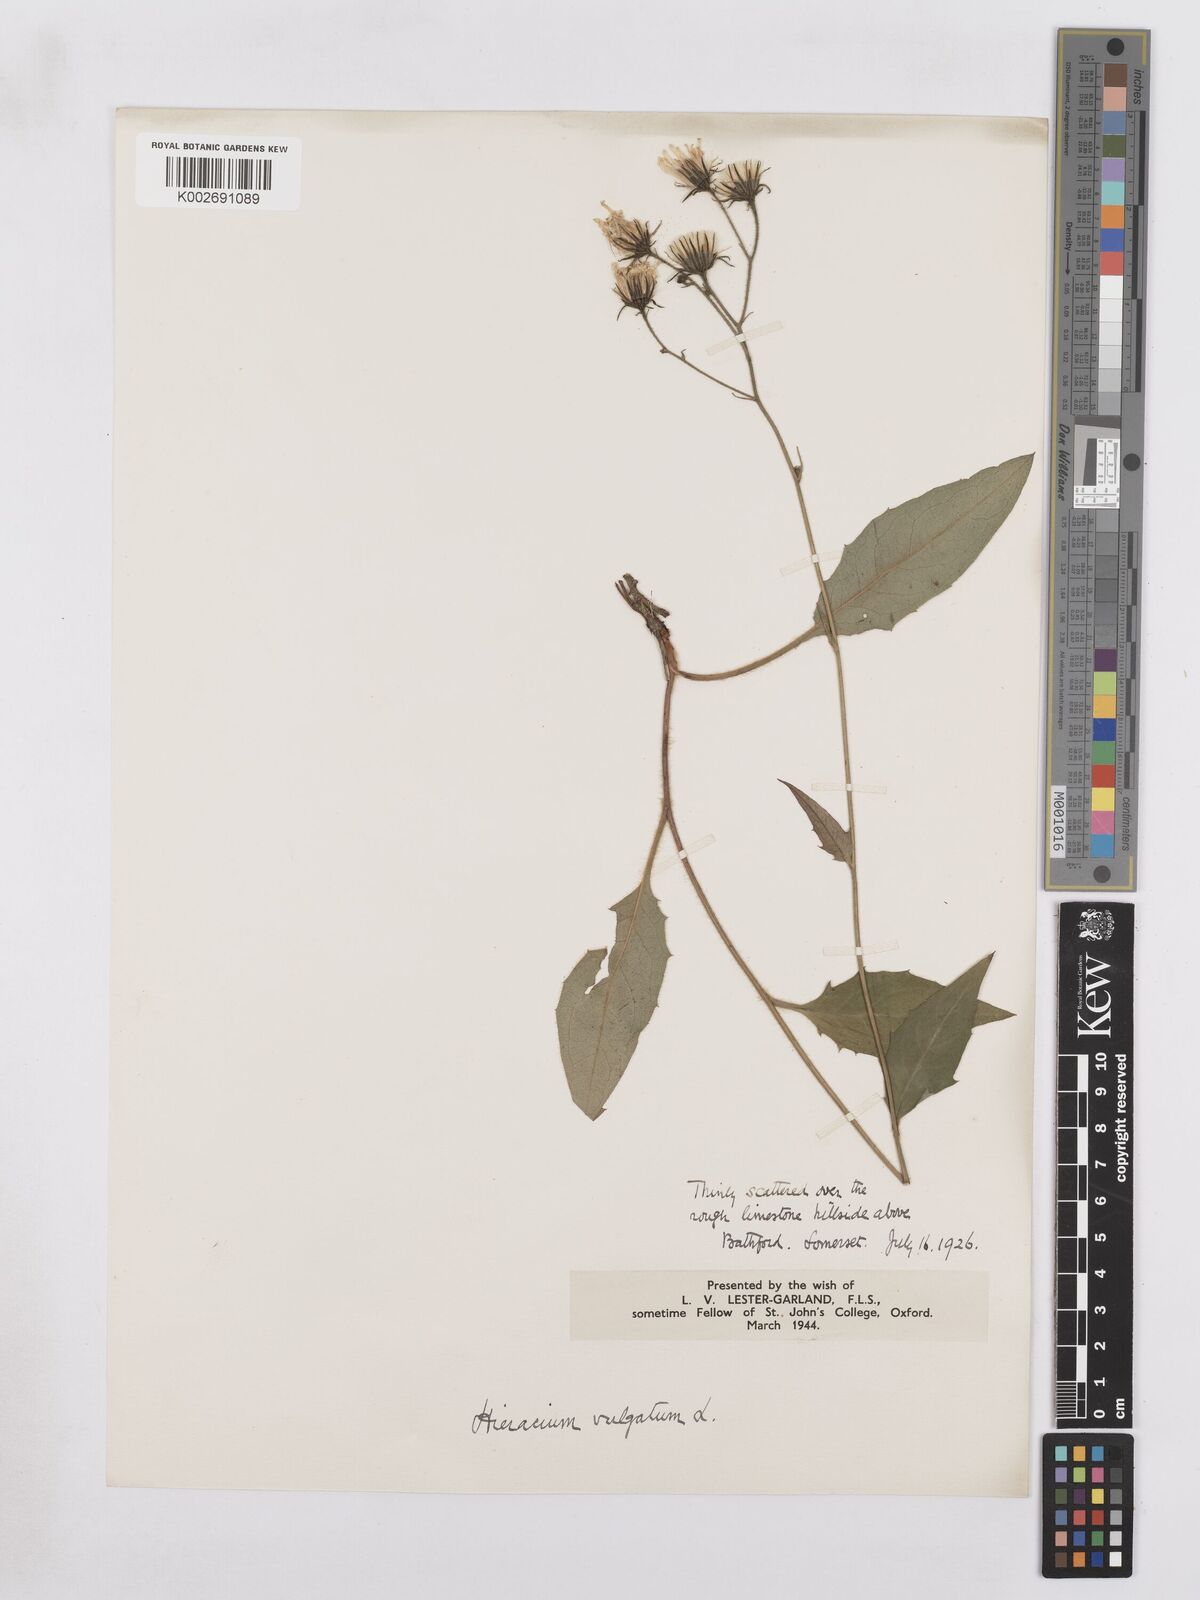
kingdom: Plantae
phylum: Tracheophyta
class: Magnoliopsida
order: Asterales
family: Asteraceae
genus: Hieracium
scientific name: Hieracium lachenalii
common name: Common hawkweed
